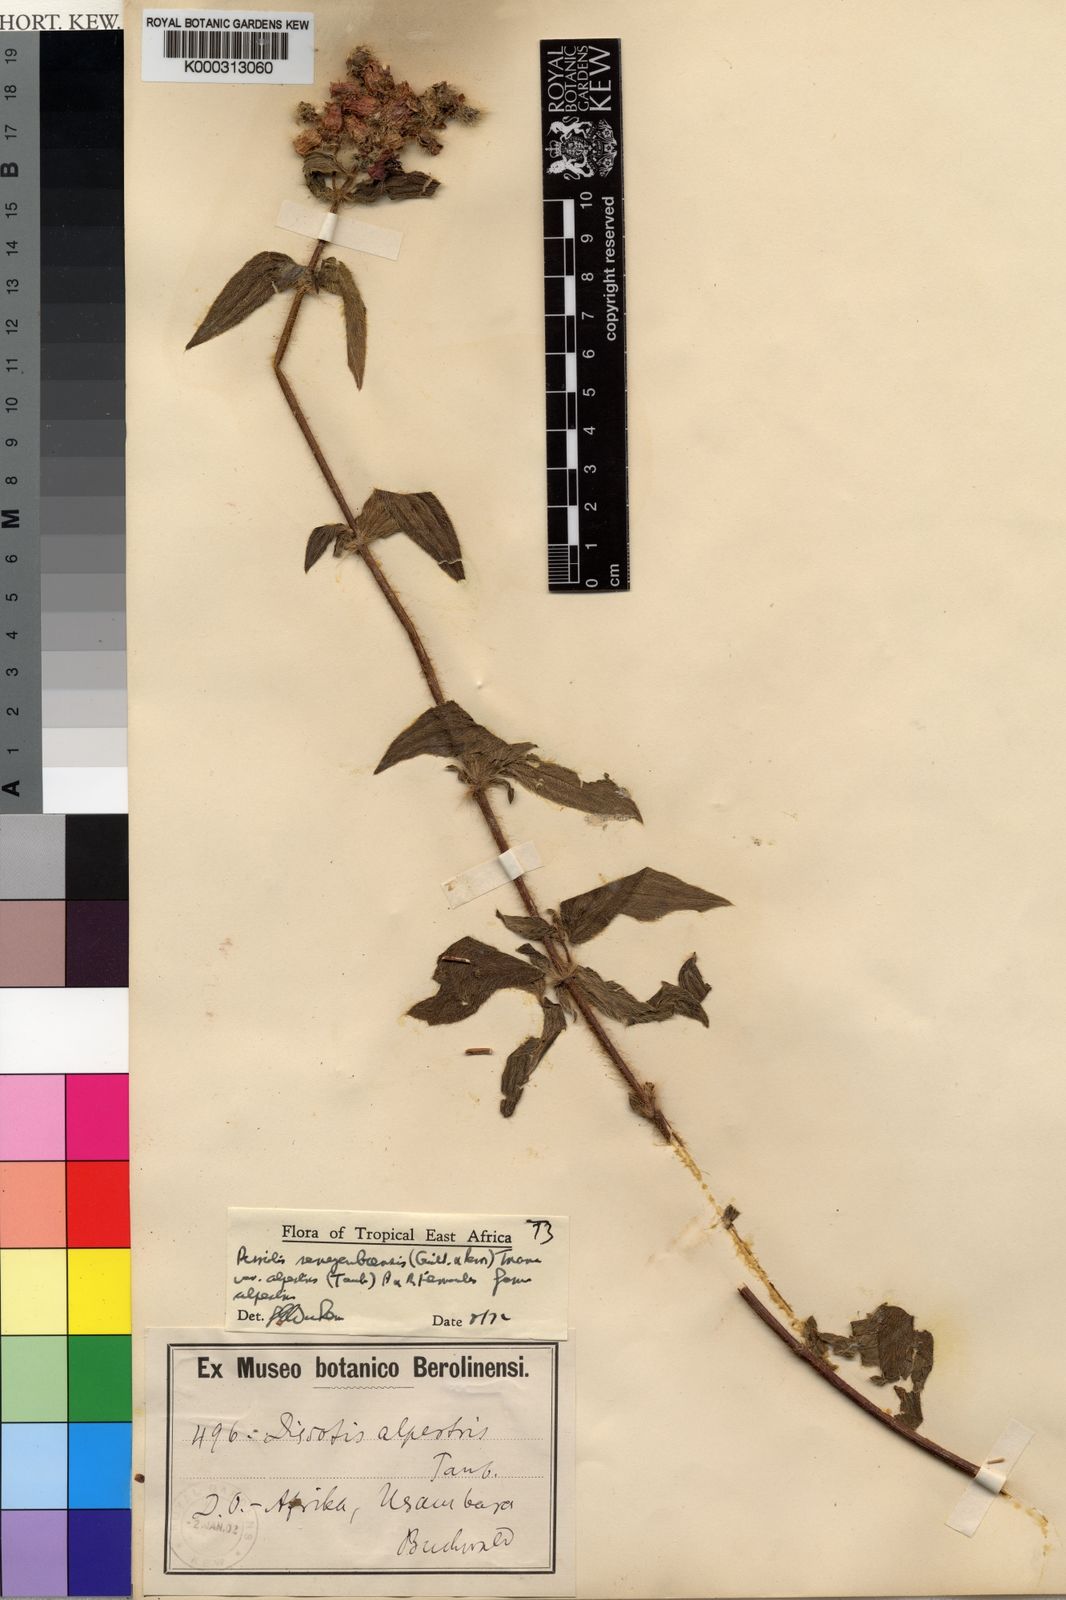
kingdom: Plantae
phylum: Tracheophyta
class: Magnoliopsida
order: Myrtales
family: Melastomataceae
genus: Antherotoma
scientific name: Antherotoma
